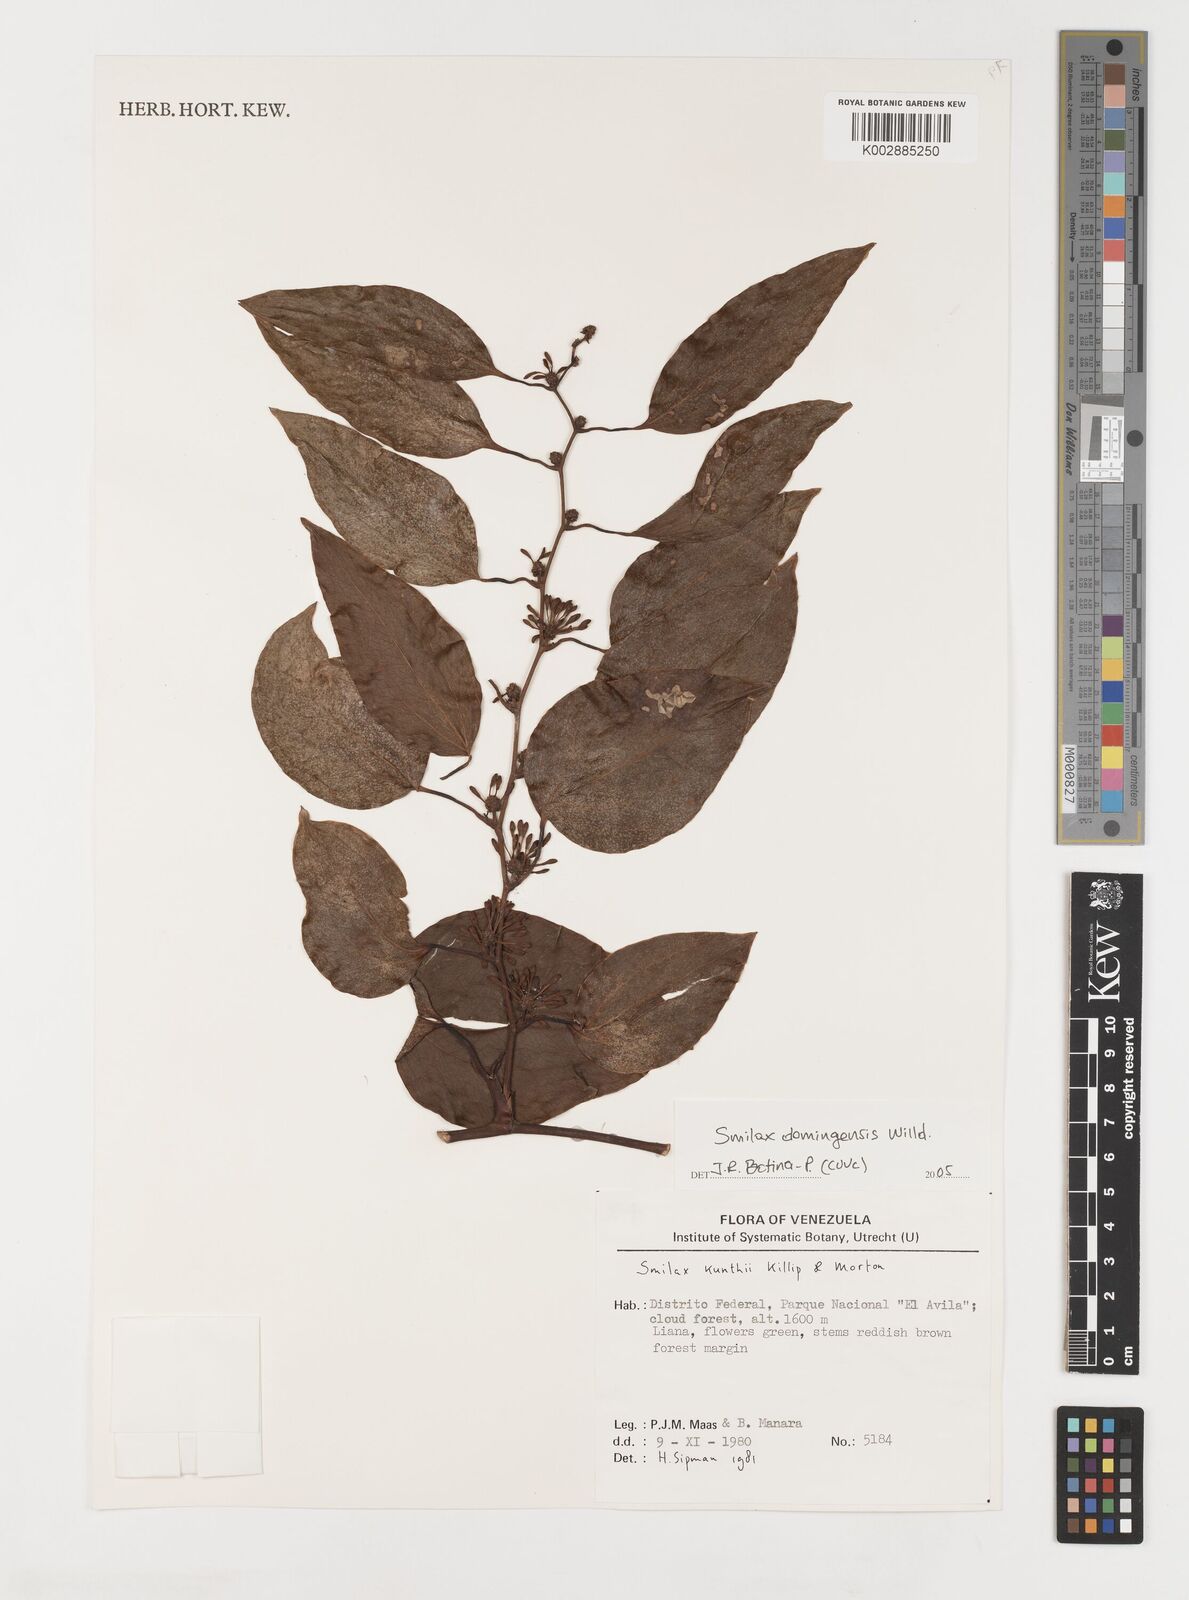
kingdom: Plantae
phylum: Tracheophyta
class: Liliopsida
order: Liliales
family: Smilacaceae
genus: Smilax
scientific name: Smilax domingensis
